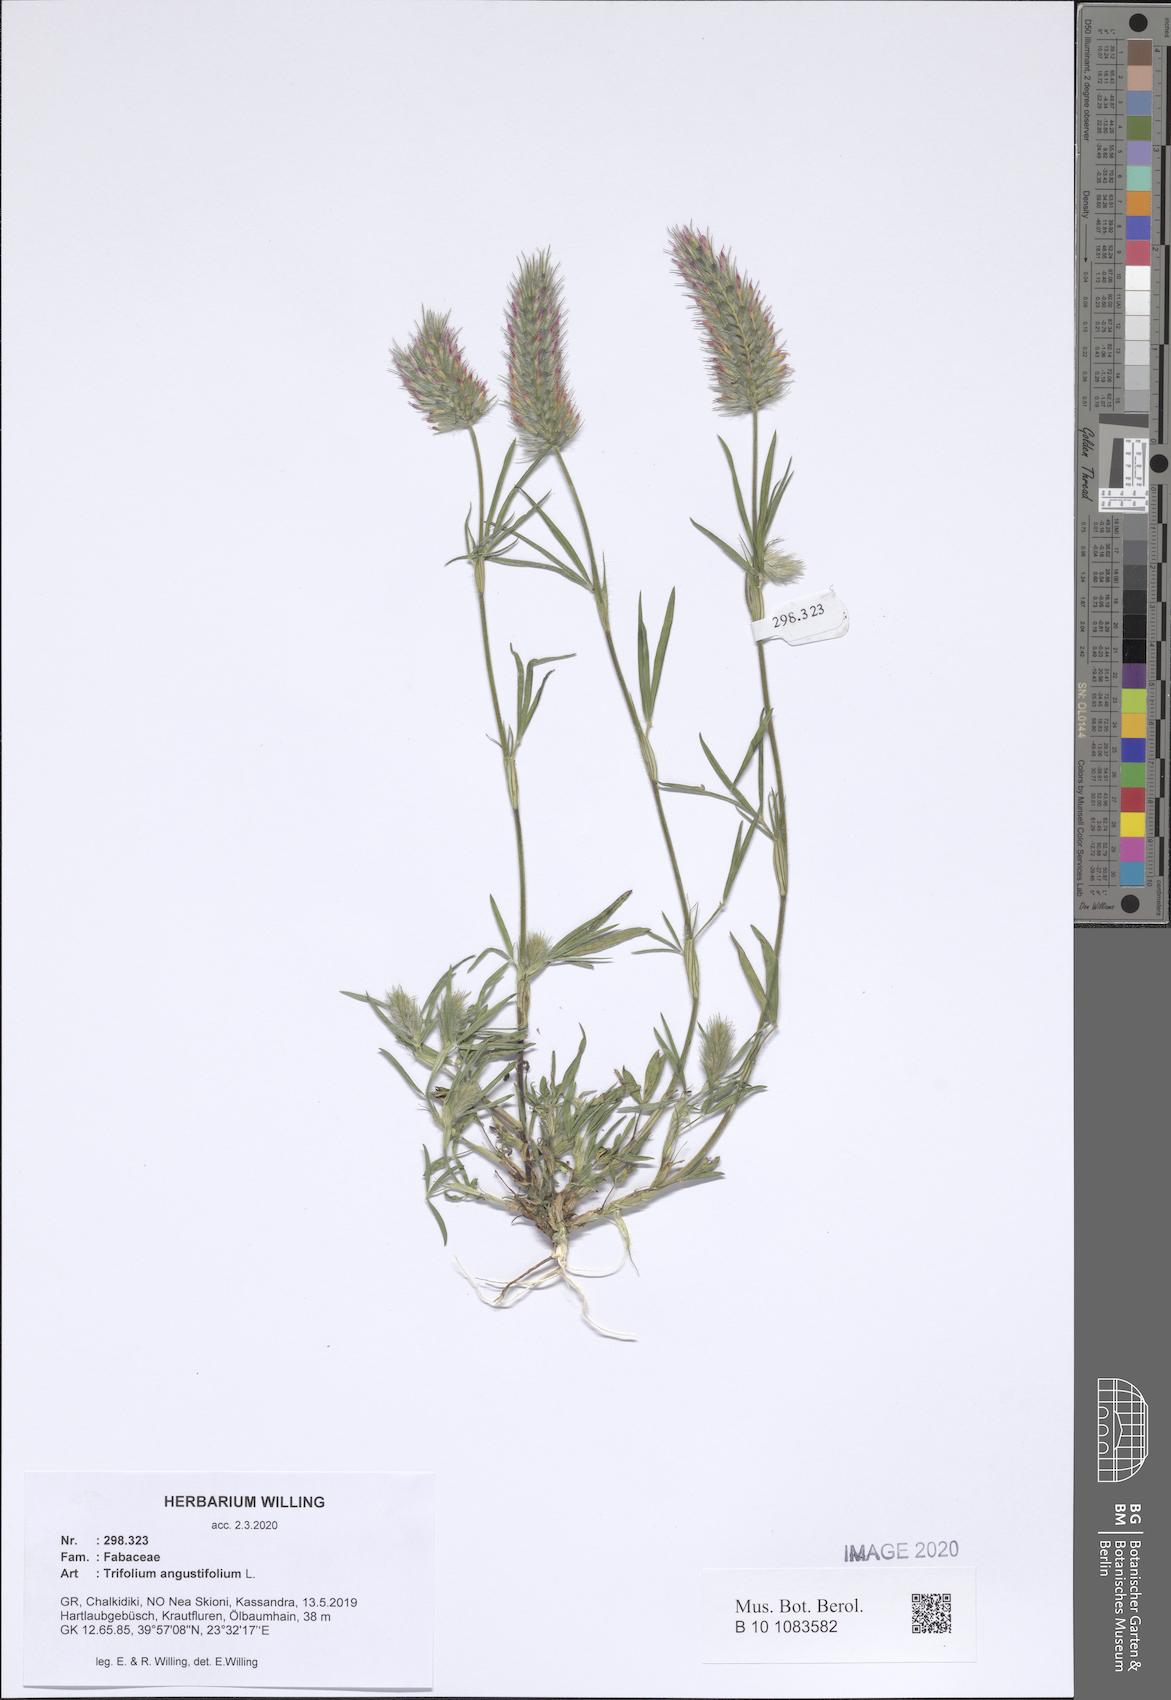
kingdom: Plantae
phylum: Tracheophyta
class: Magnoliopsida
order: Fabales
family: Fabaceae
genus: Trifolium
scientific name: Trifolium angustifolium
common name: Narrow clover
